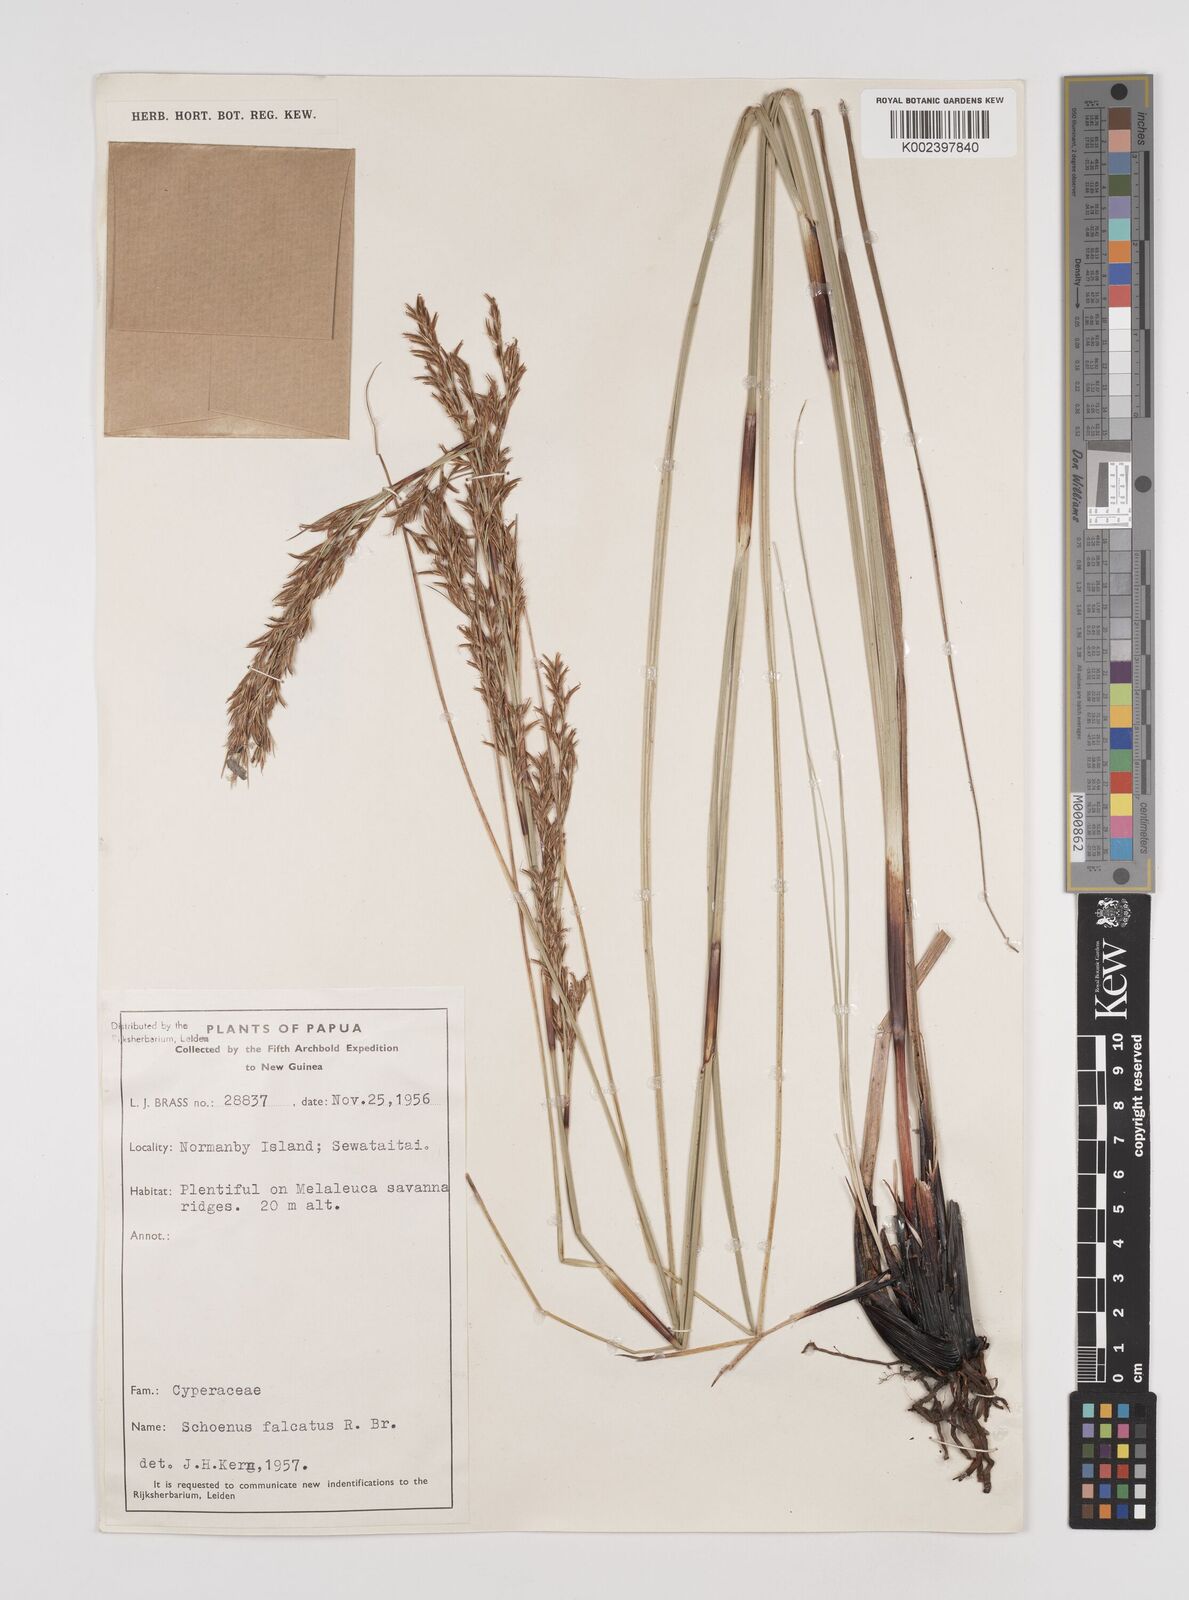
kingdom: Plantae
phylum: Tracheophyta
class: Liliopsida
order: Poales
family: Cyperaceae
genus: Schoenus
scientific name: Schoenus falcatus
